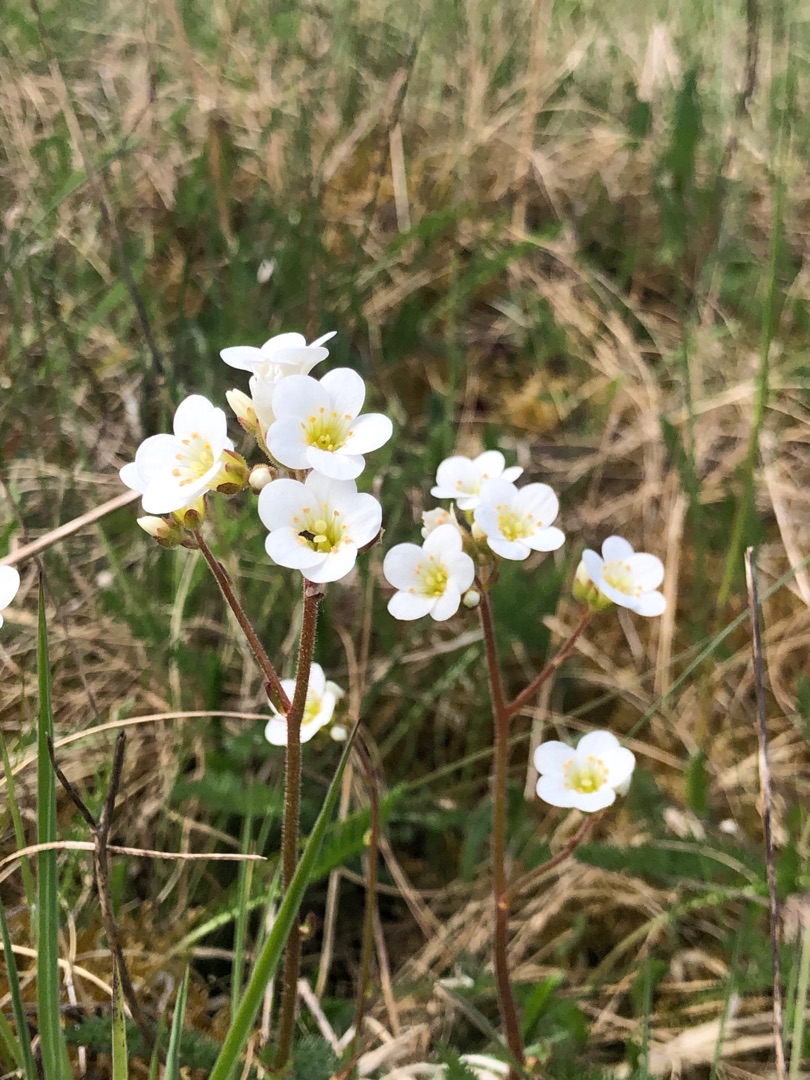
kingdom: Plantae
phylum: Tracheophyta
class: Magnoliopsida
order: Saxifragales
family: Saxifragaceae
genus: Saxifraga
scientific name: Saxifraga granulata
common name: Kornet stenbræk
